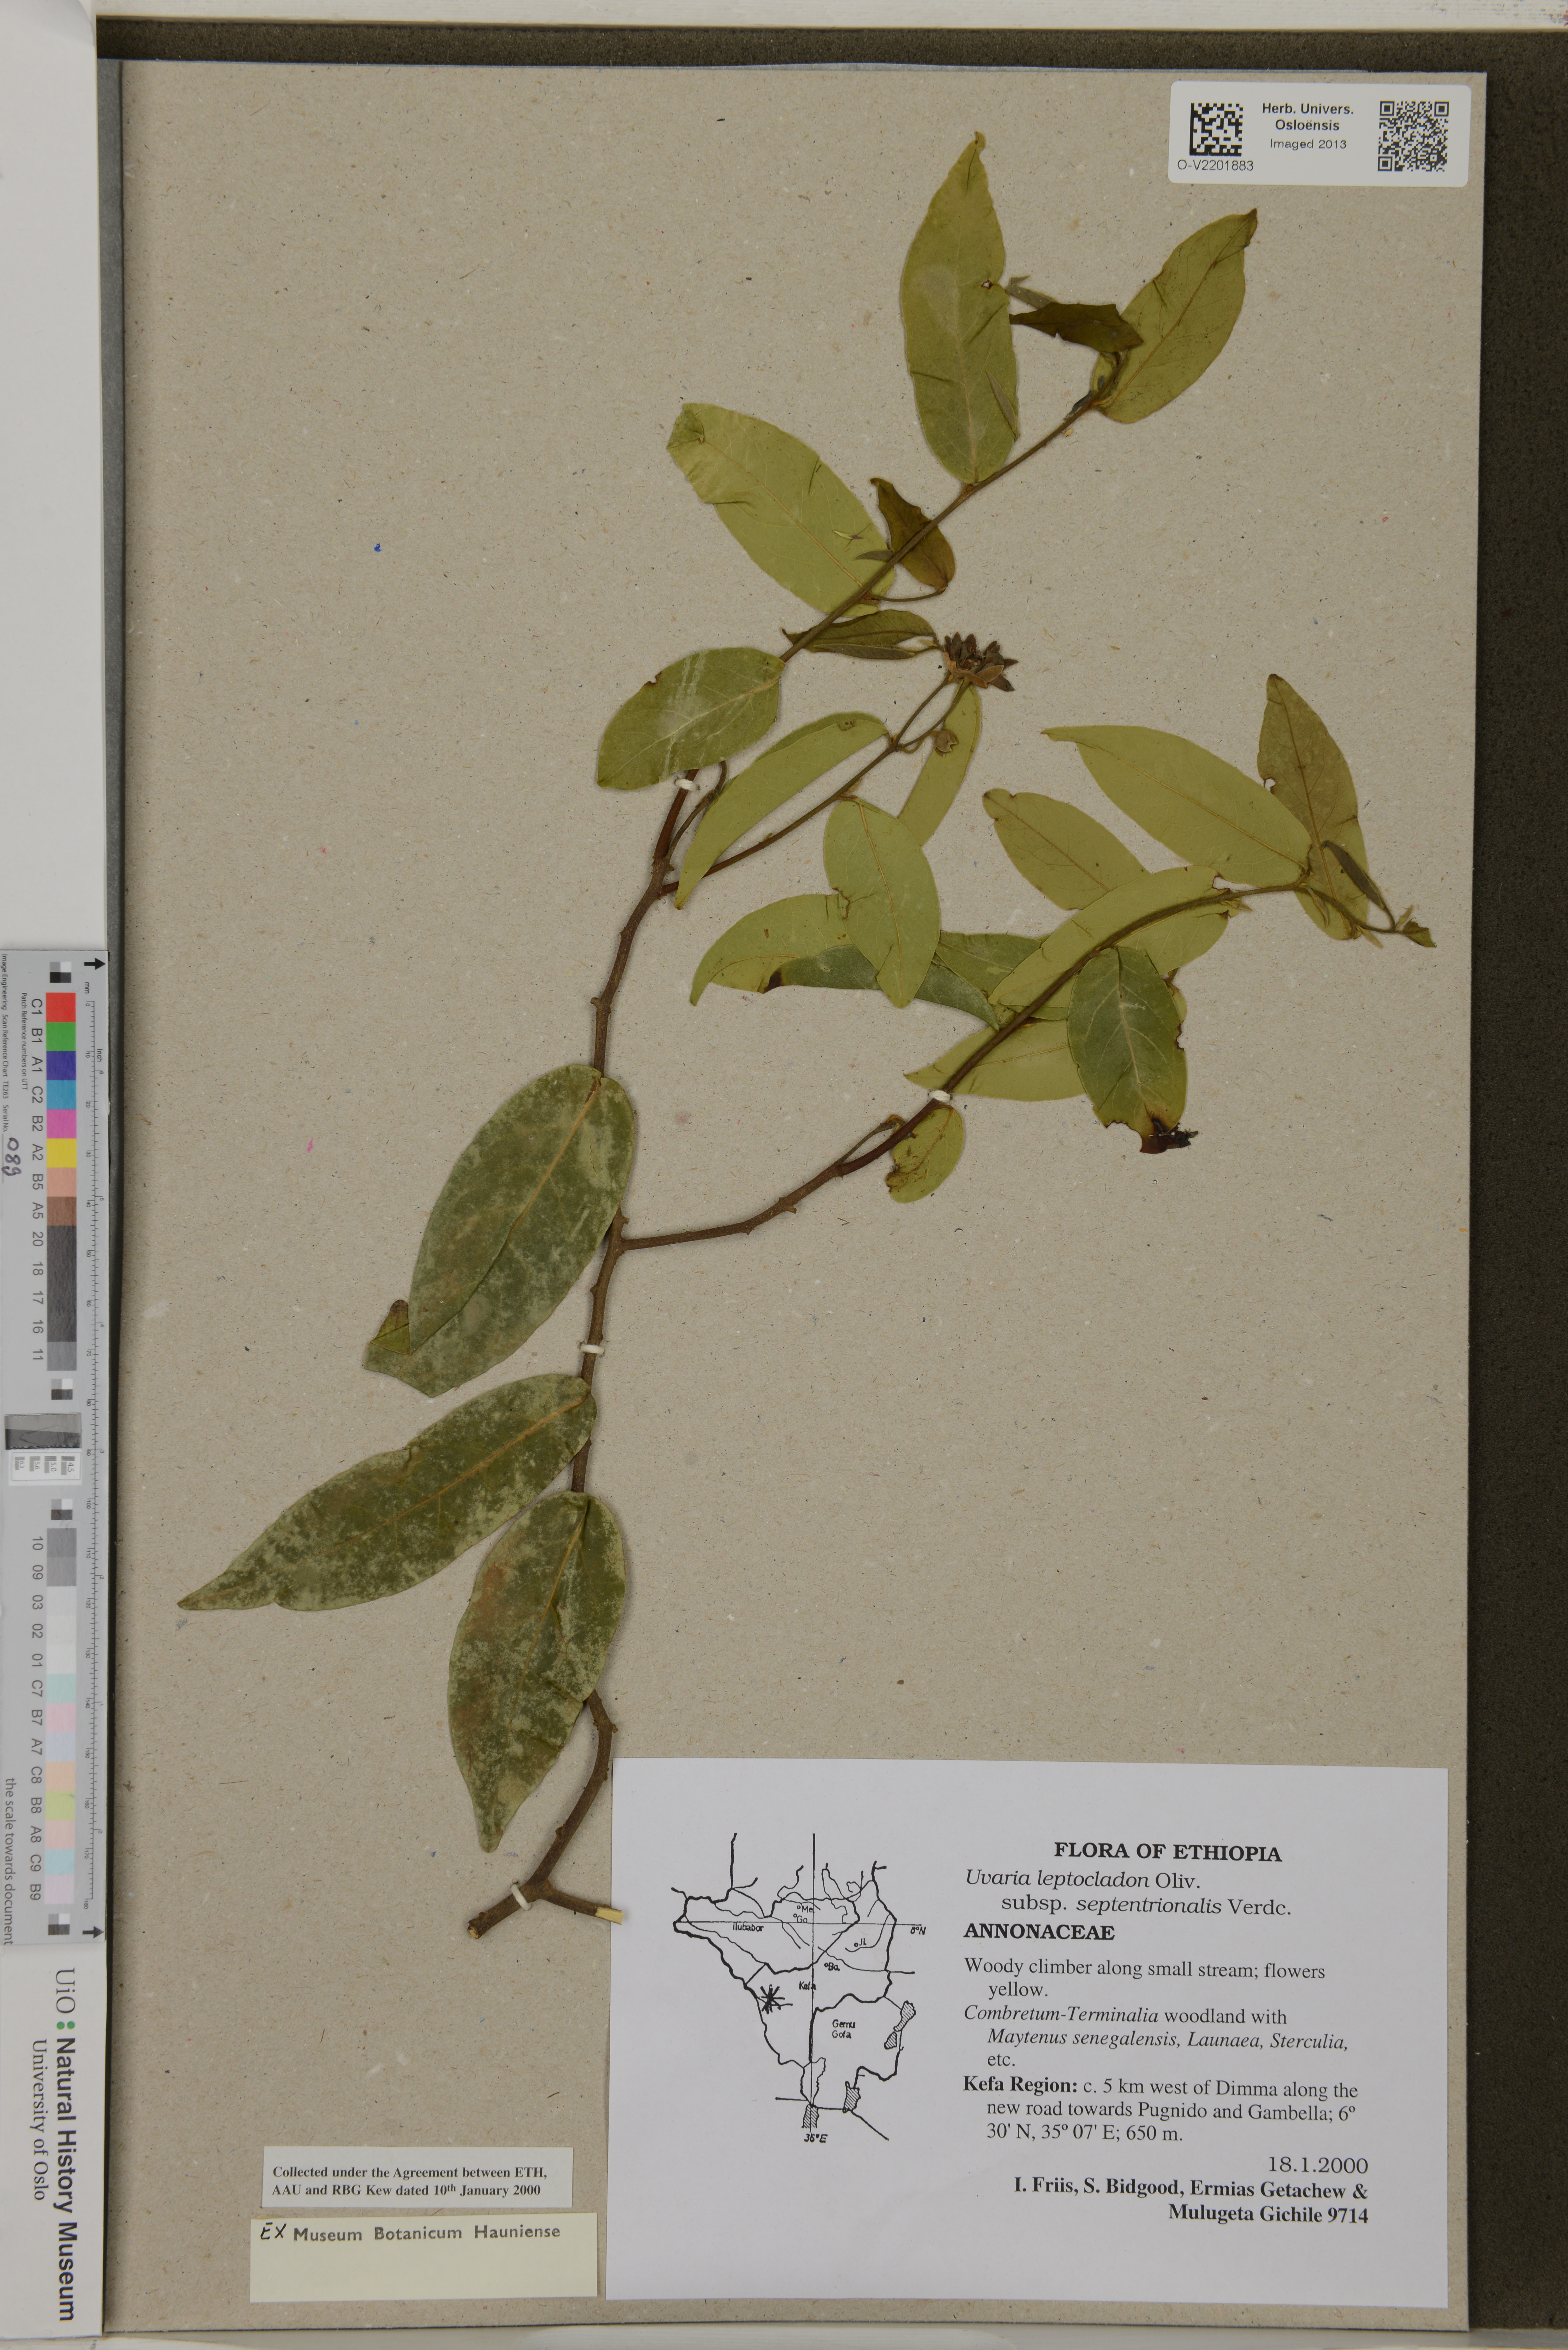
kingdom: Plantae
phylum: Tracheophyta
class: Magnoliopsida
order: Magnoliales
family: Annonaceae
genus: Uvaria
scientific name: Uvaria leptocladon
